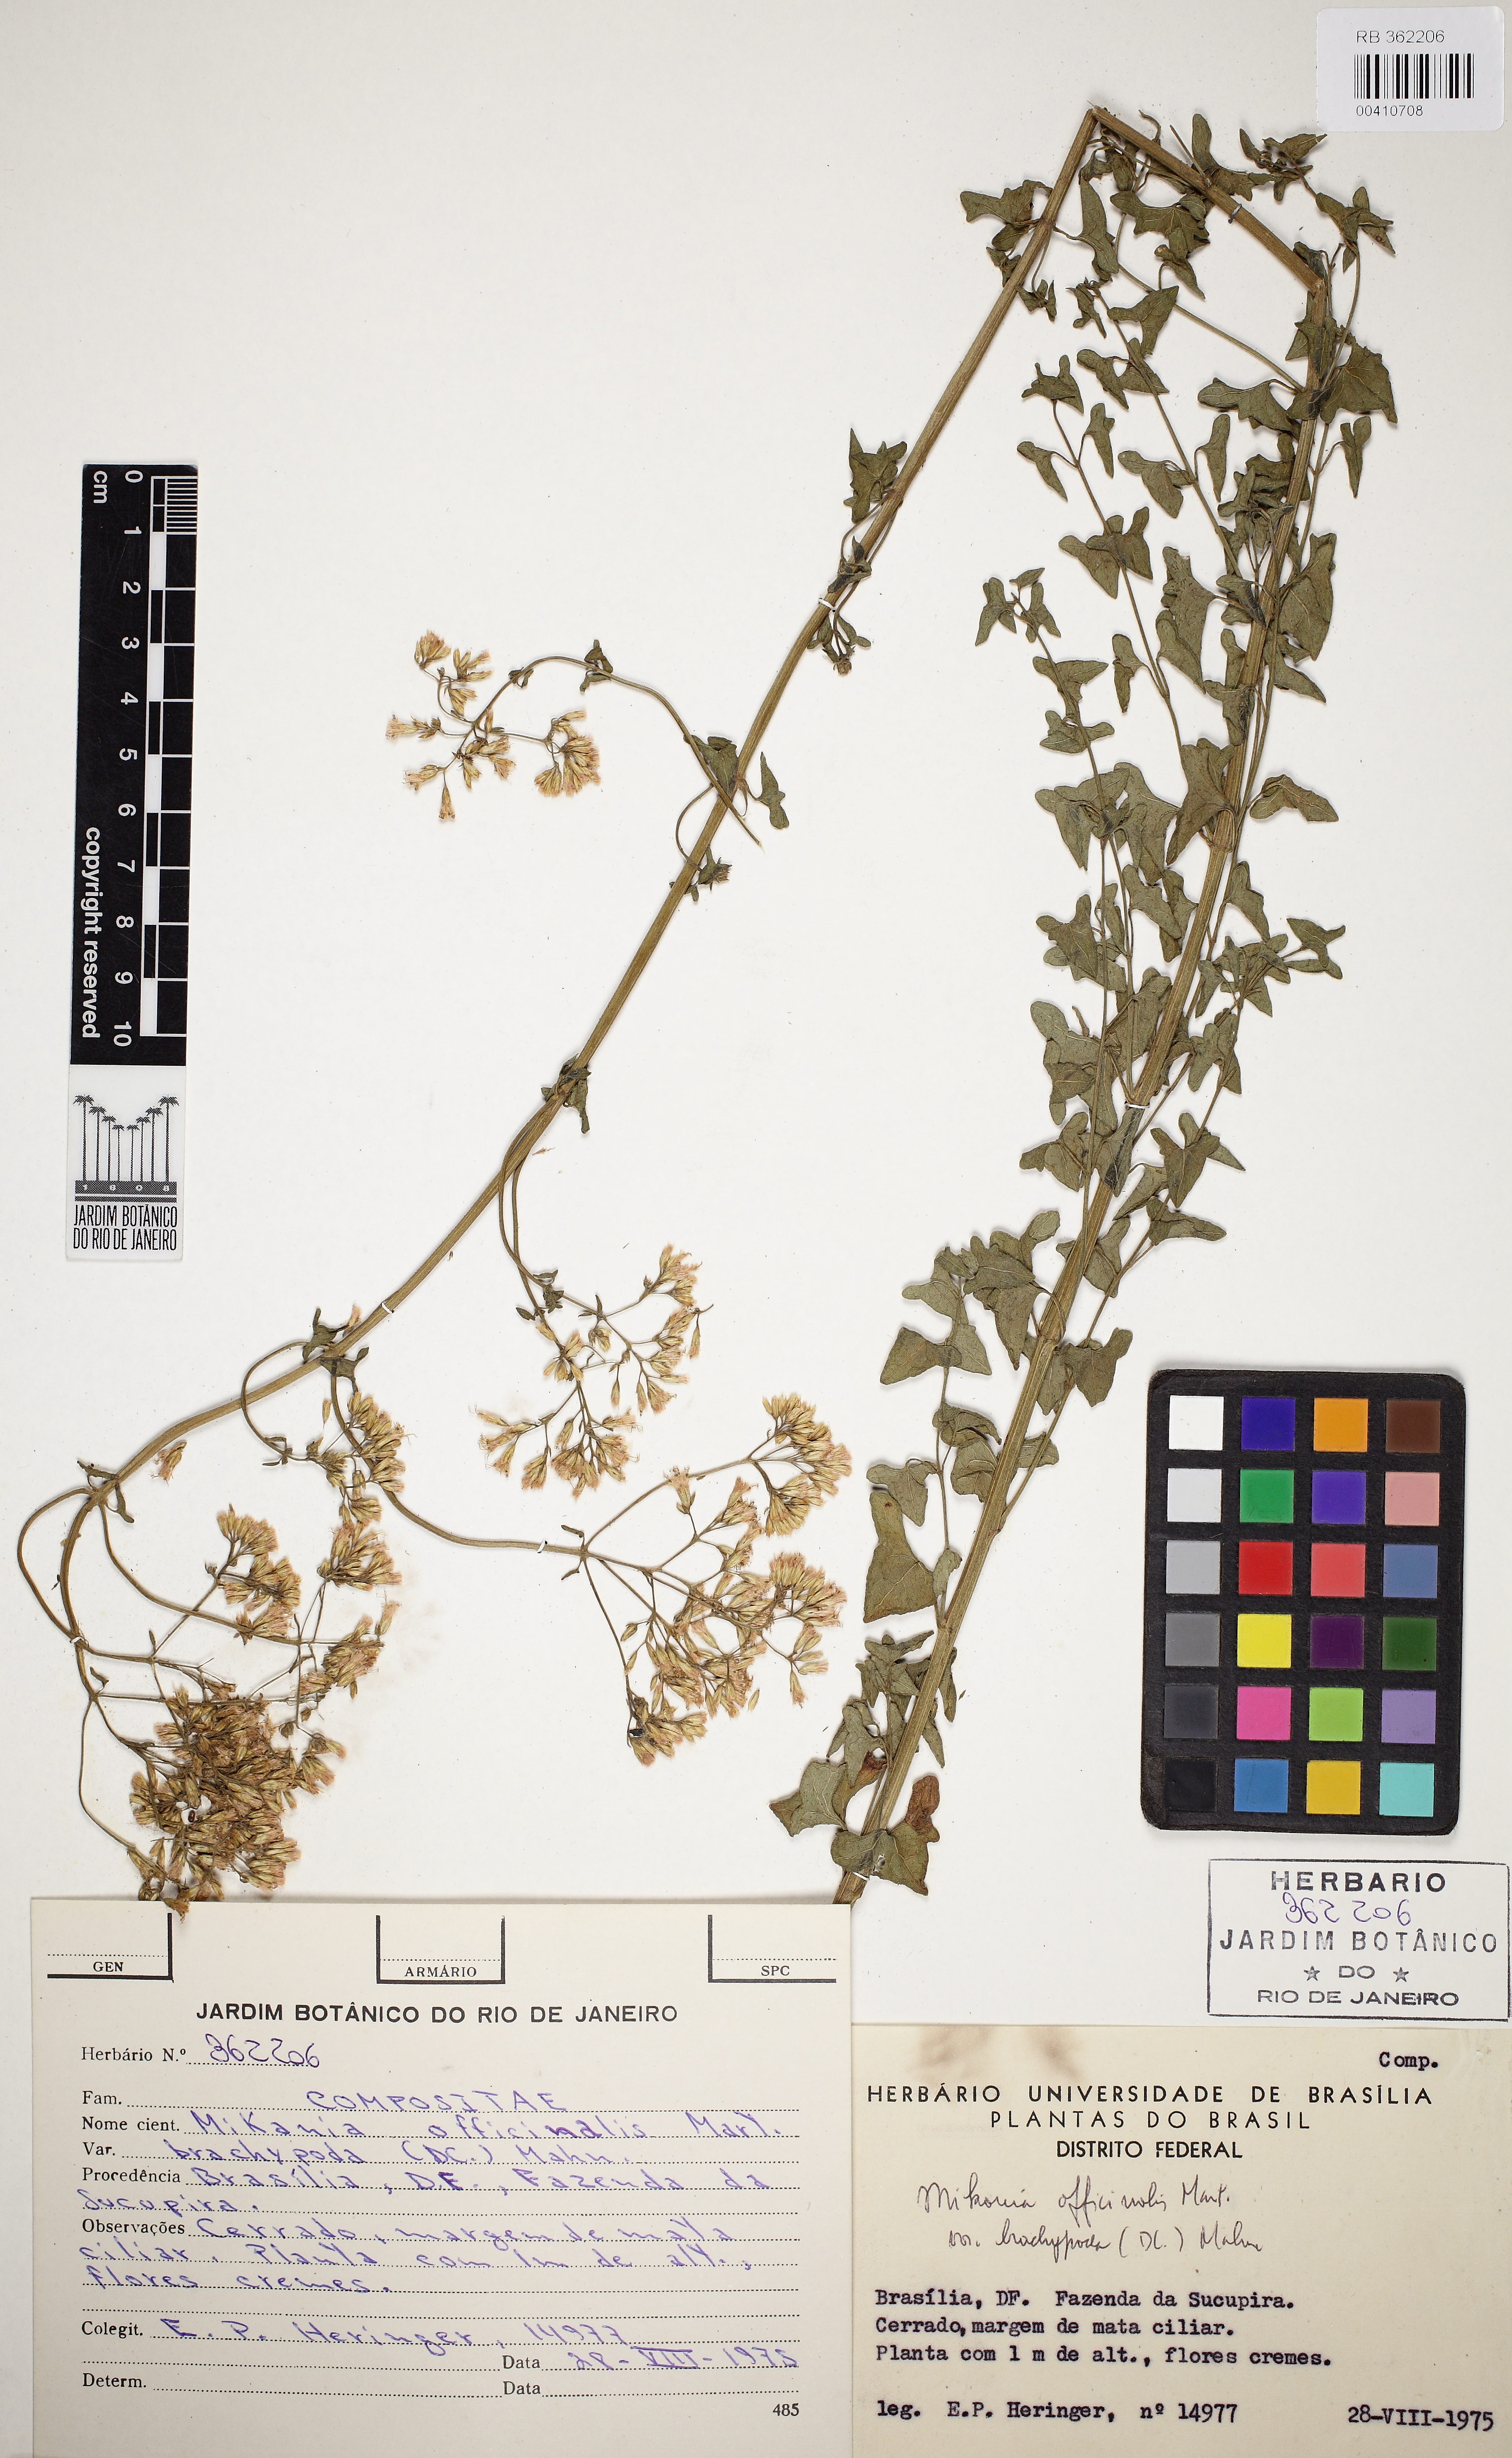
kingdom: Plantae
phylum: Tracheophyta
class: Magnoliopsida
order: Asterales
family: Asteraceae
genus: Mikania
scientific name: Mikania officinalis
